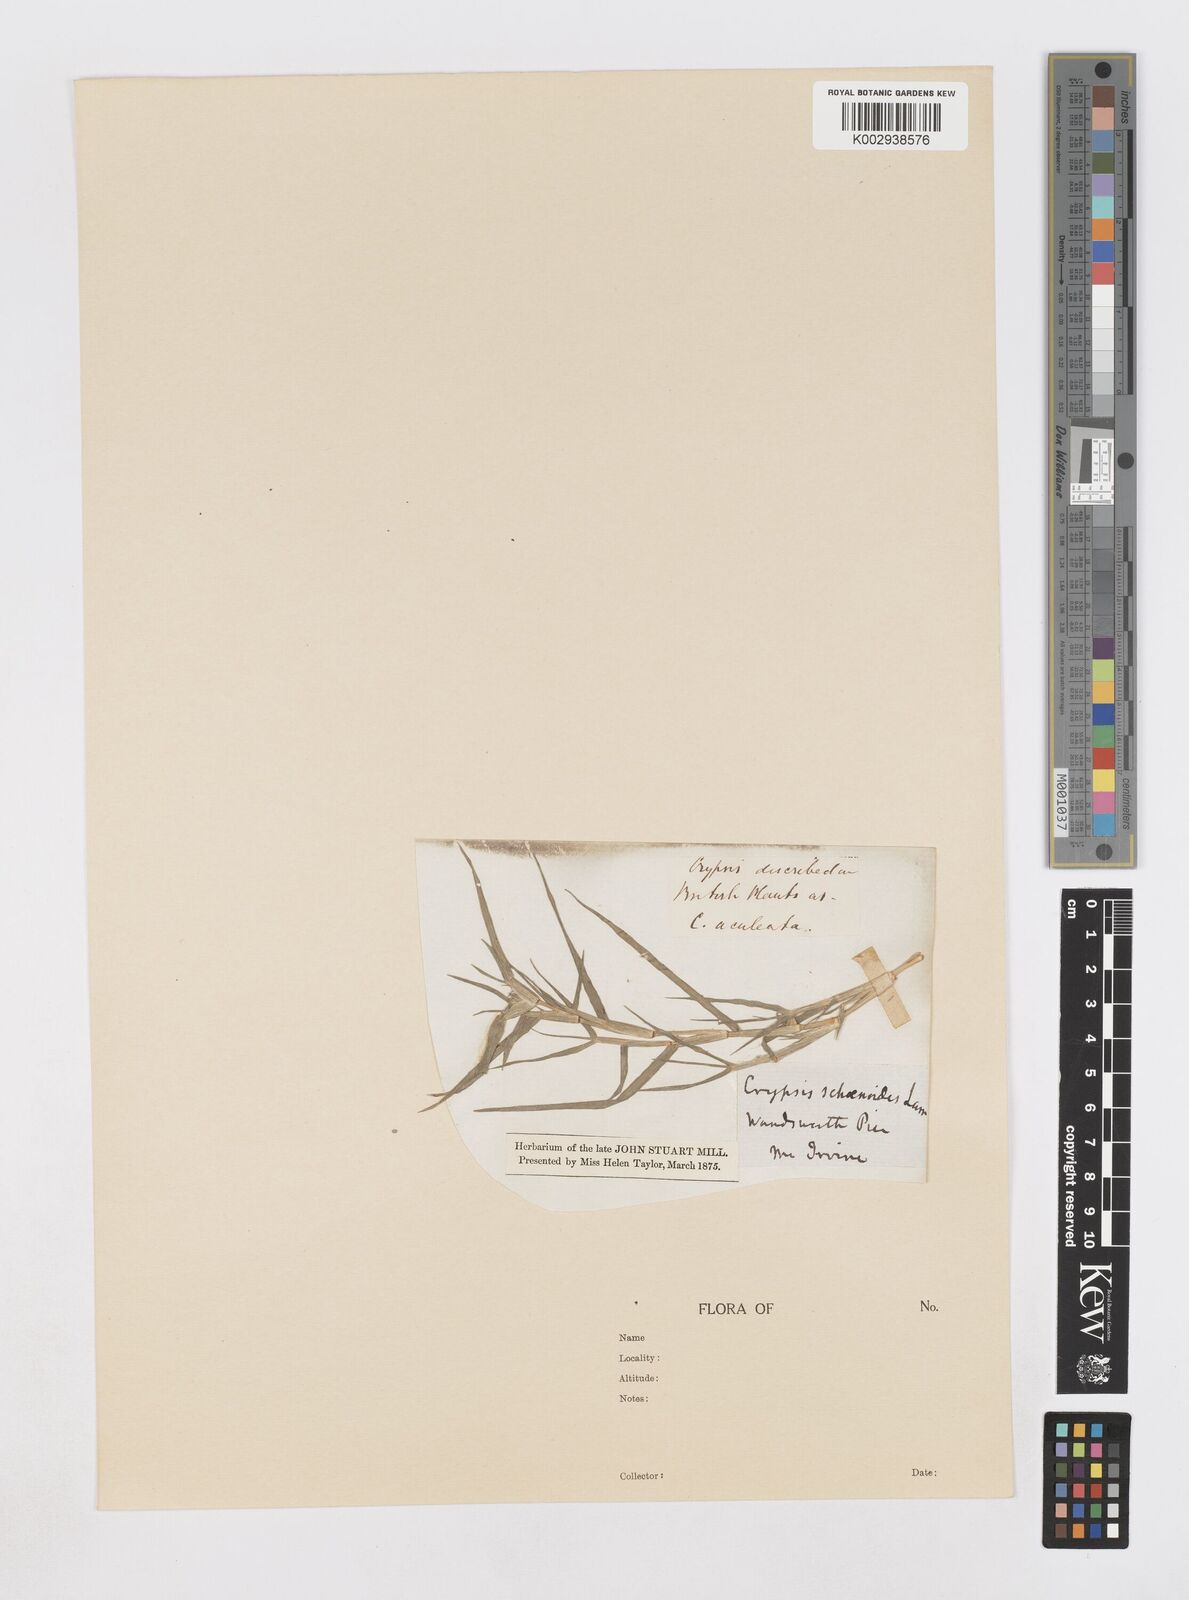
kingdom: Plantae
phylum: Tracheophyta
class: Liliopsida
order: Poales
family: Poaceae
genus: Sporobolus
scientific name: Sporobolus schoenoides
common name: Rush-like timothy
